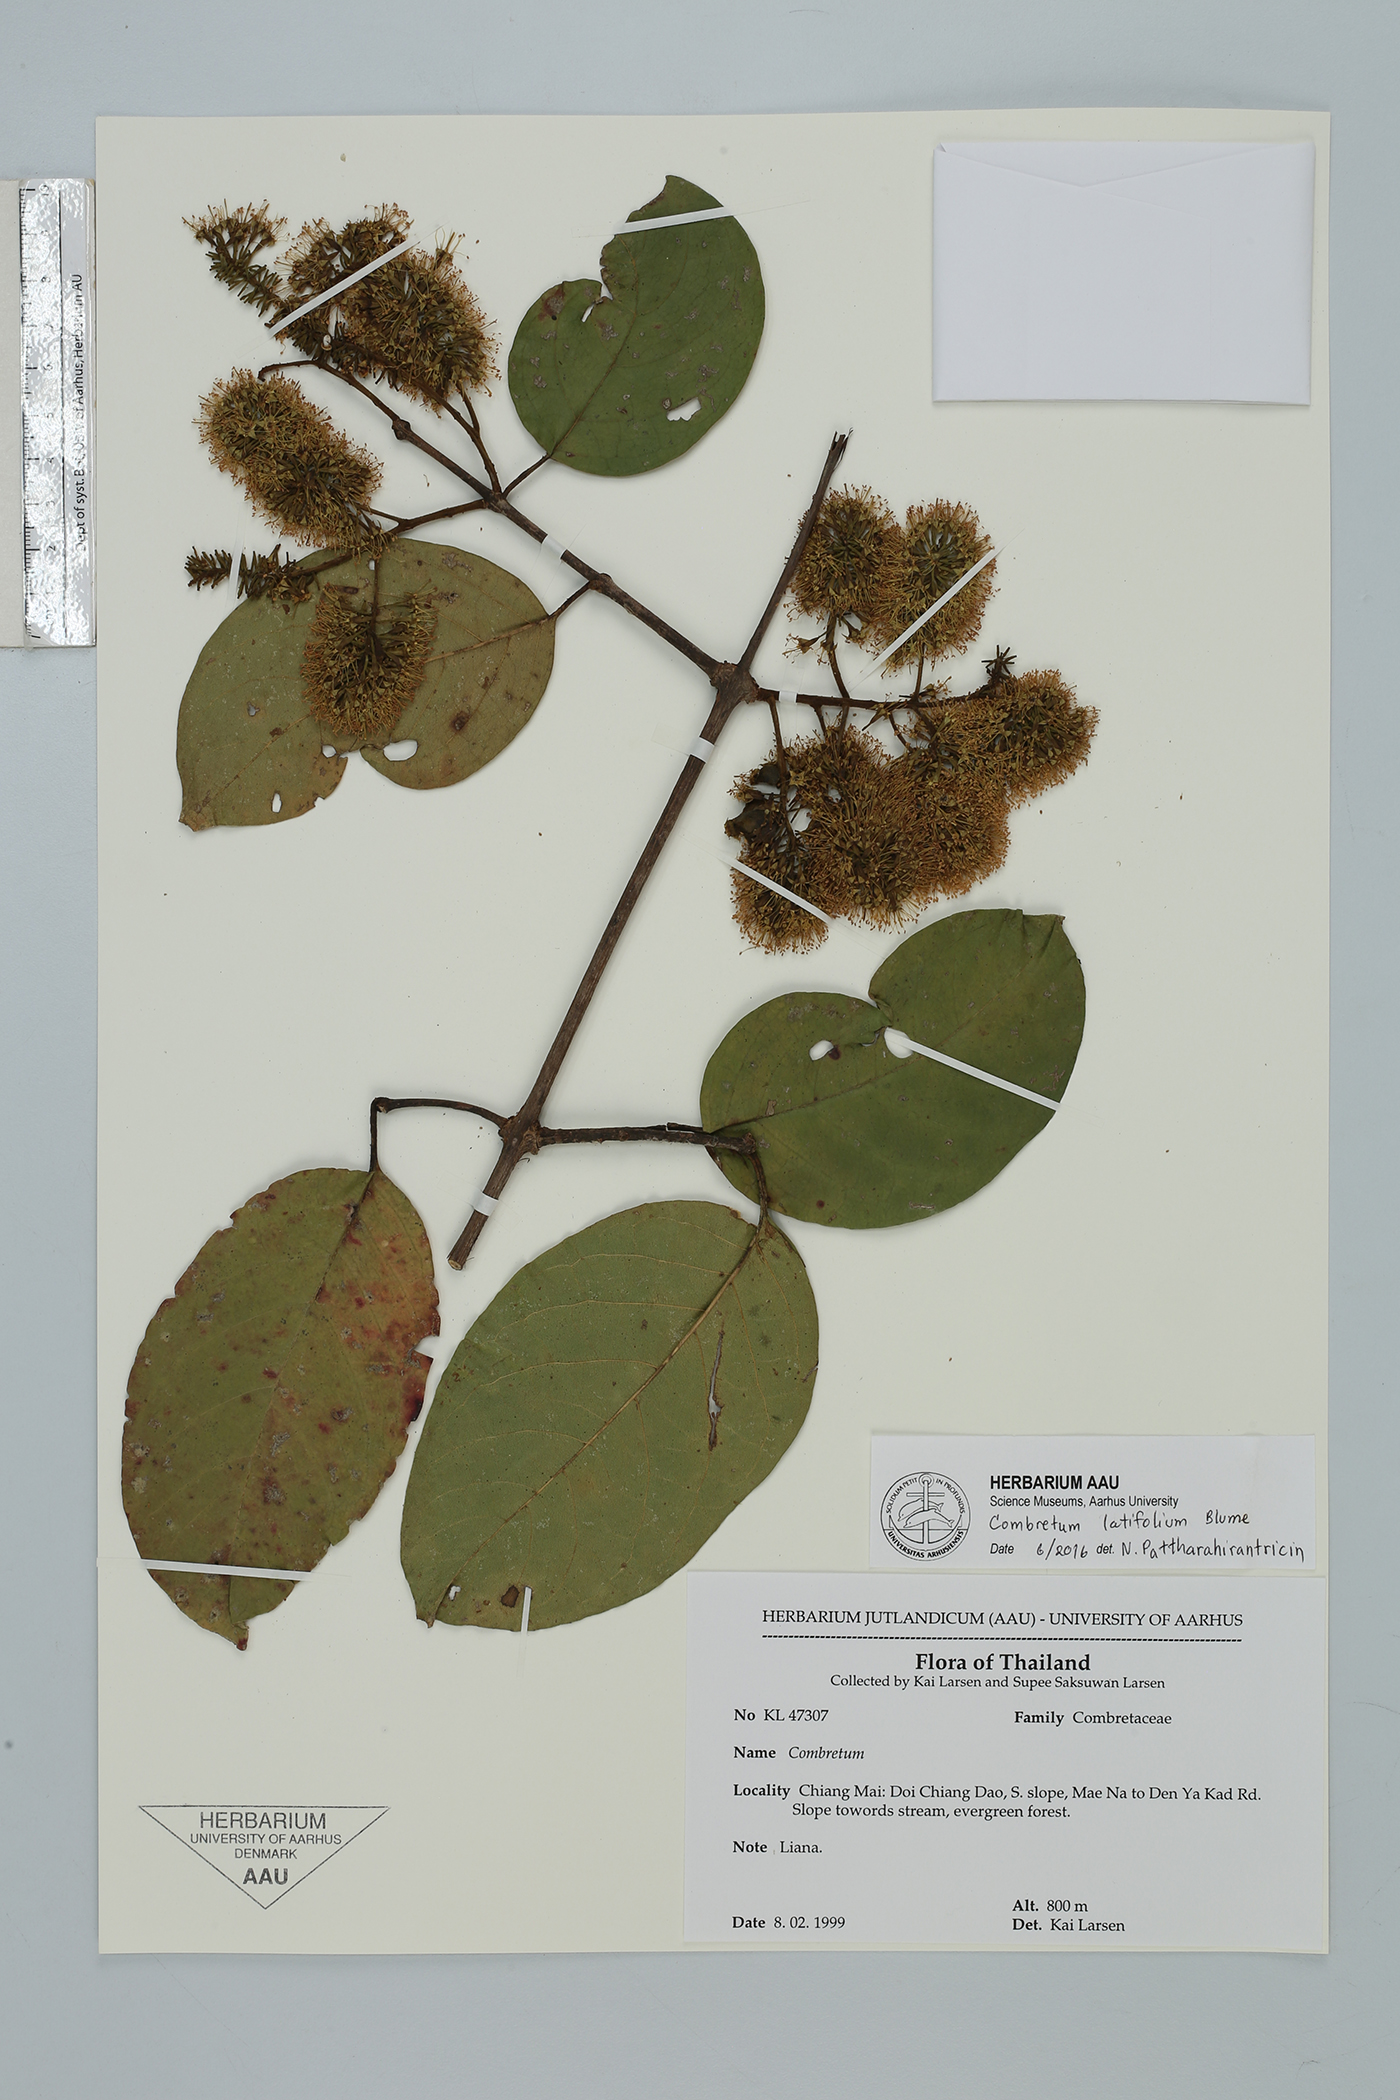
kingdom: Plantae
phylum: Tracheophyta
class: Magnoliopsida
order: Myrtales
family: Combretaceae
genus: Combretum
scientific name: Combretum latifolium
